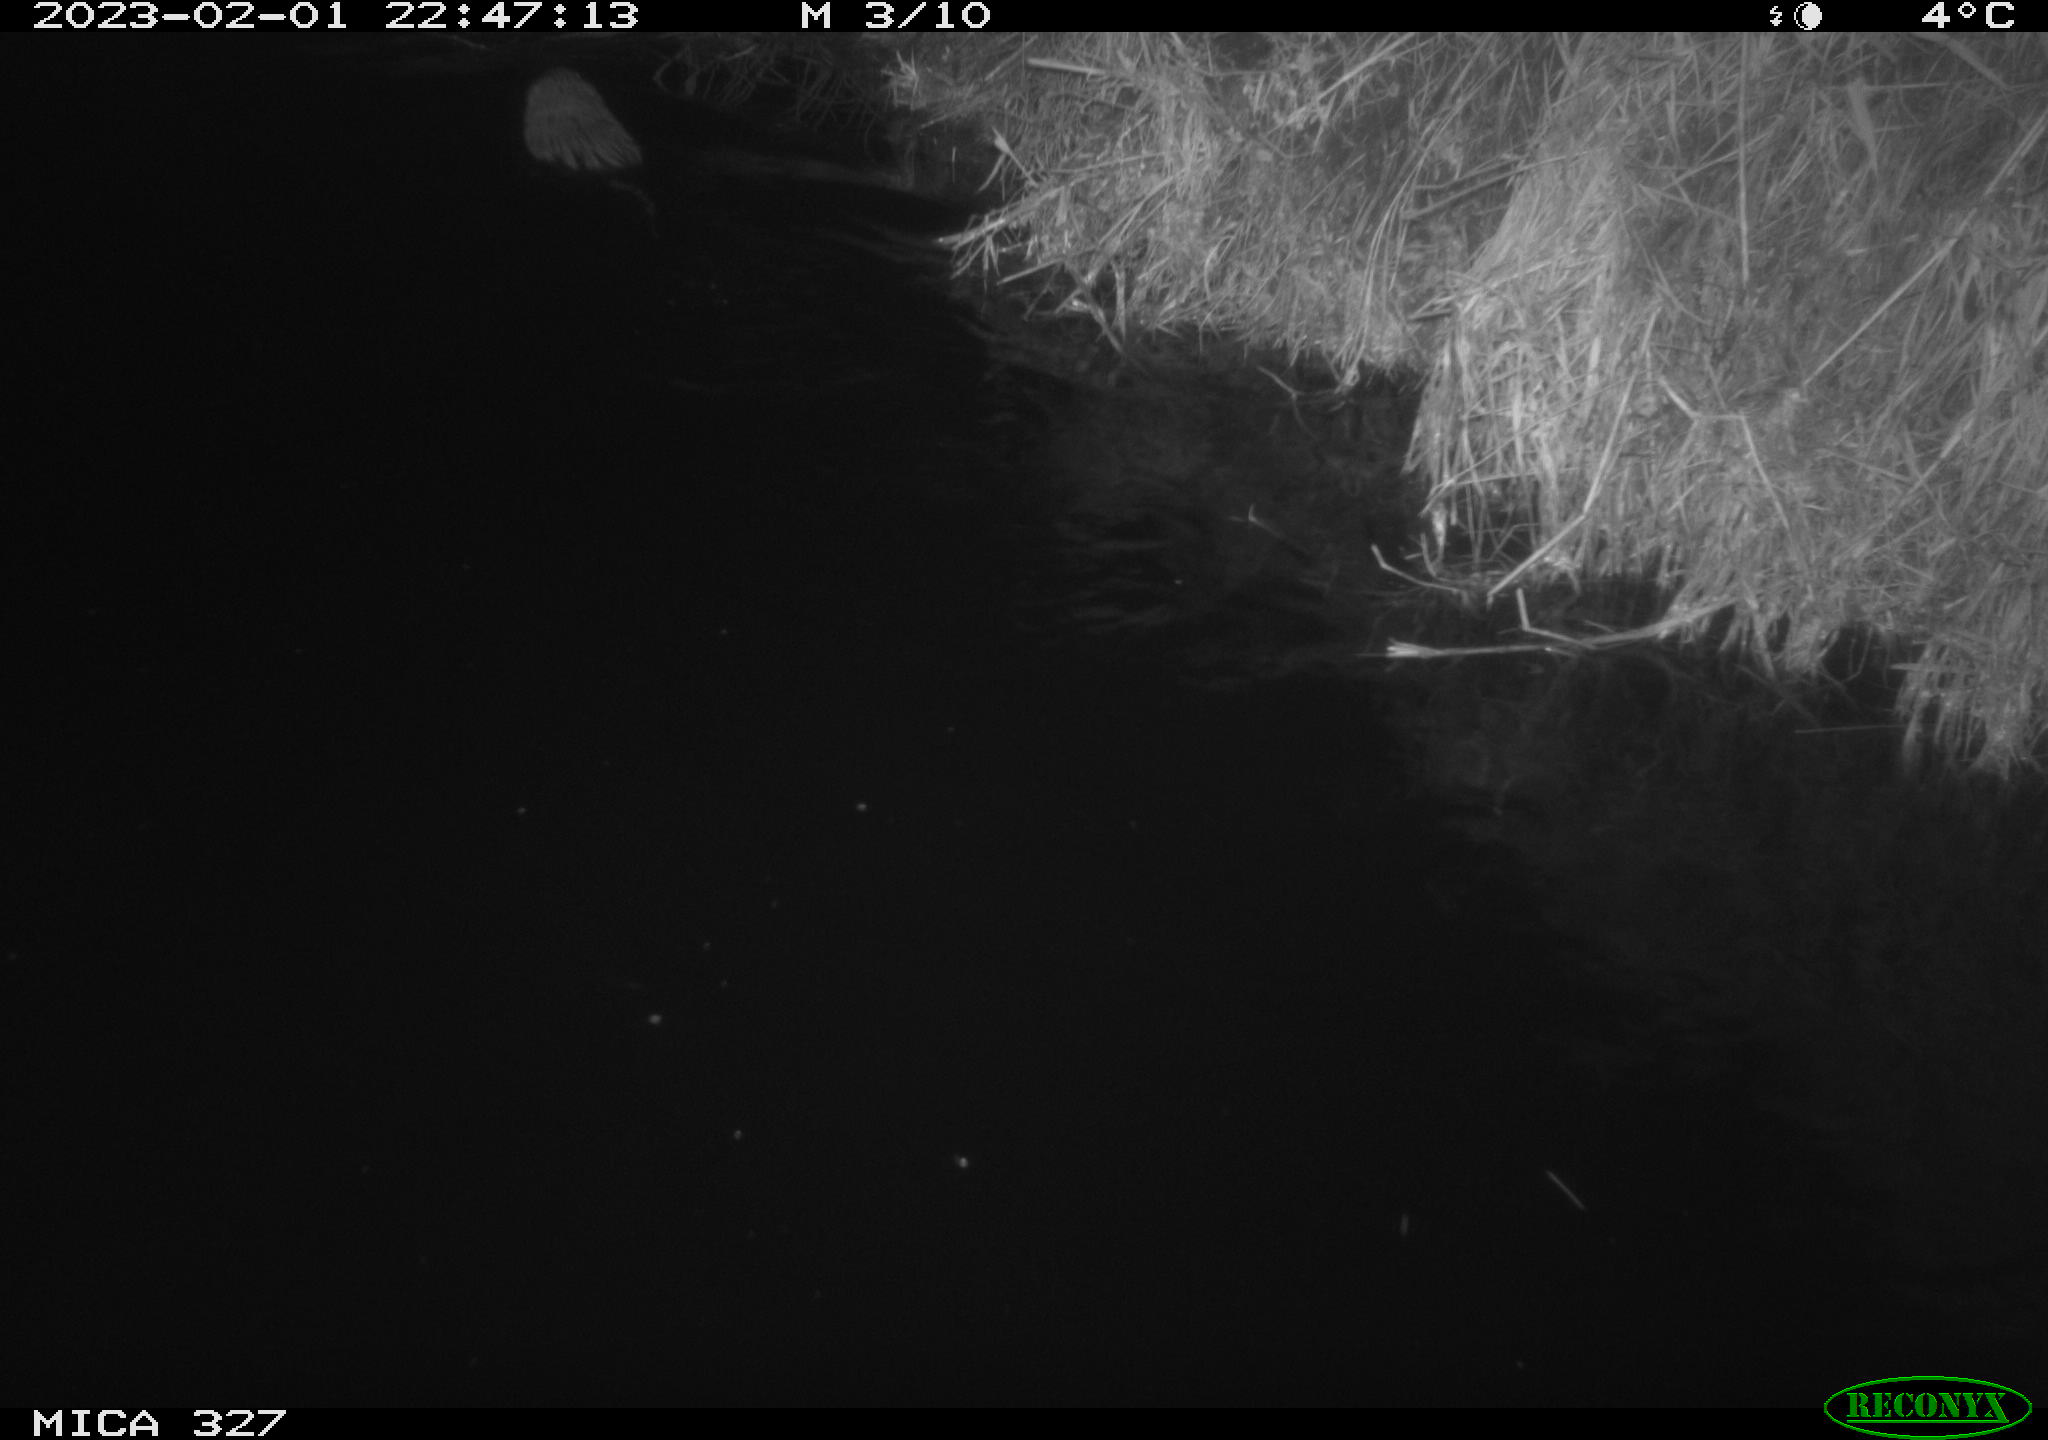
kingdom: Animalia
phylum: Chordata
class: Mammalia
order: Rodentia
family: Cricetidae
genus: Ondatra
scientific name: Ondatra zibethicus
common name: Muskrat
